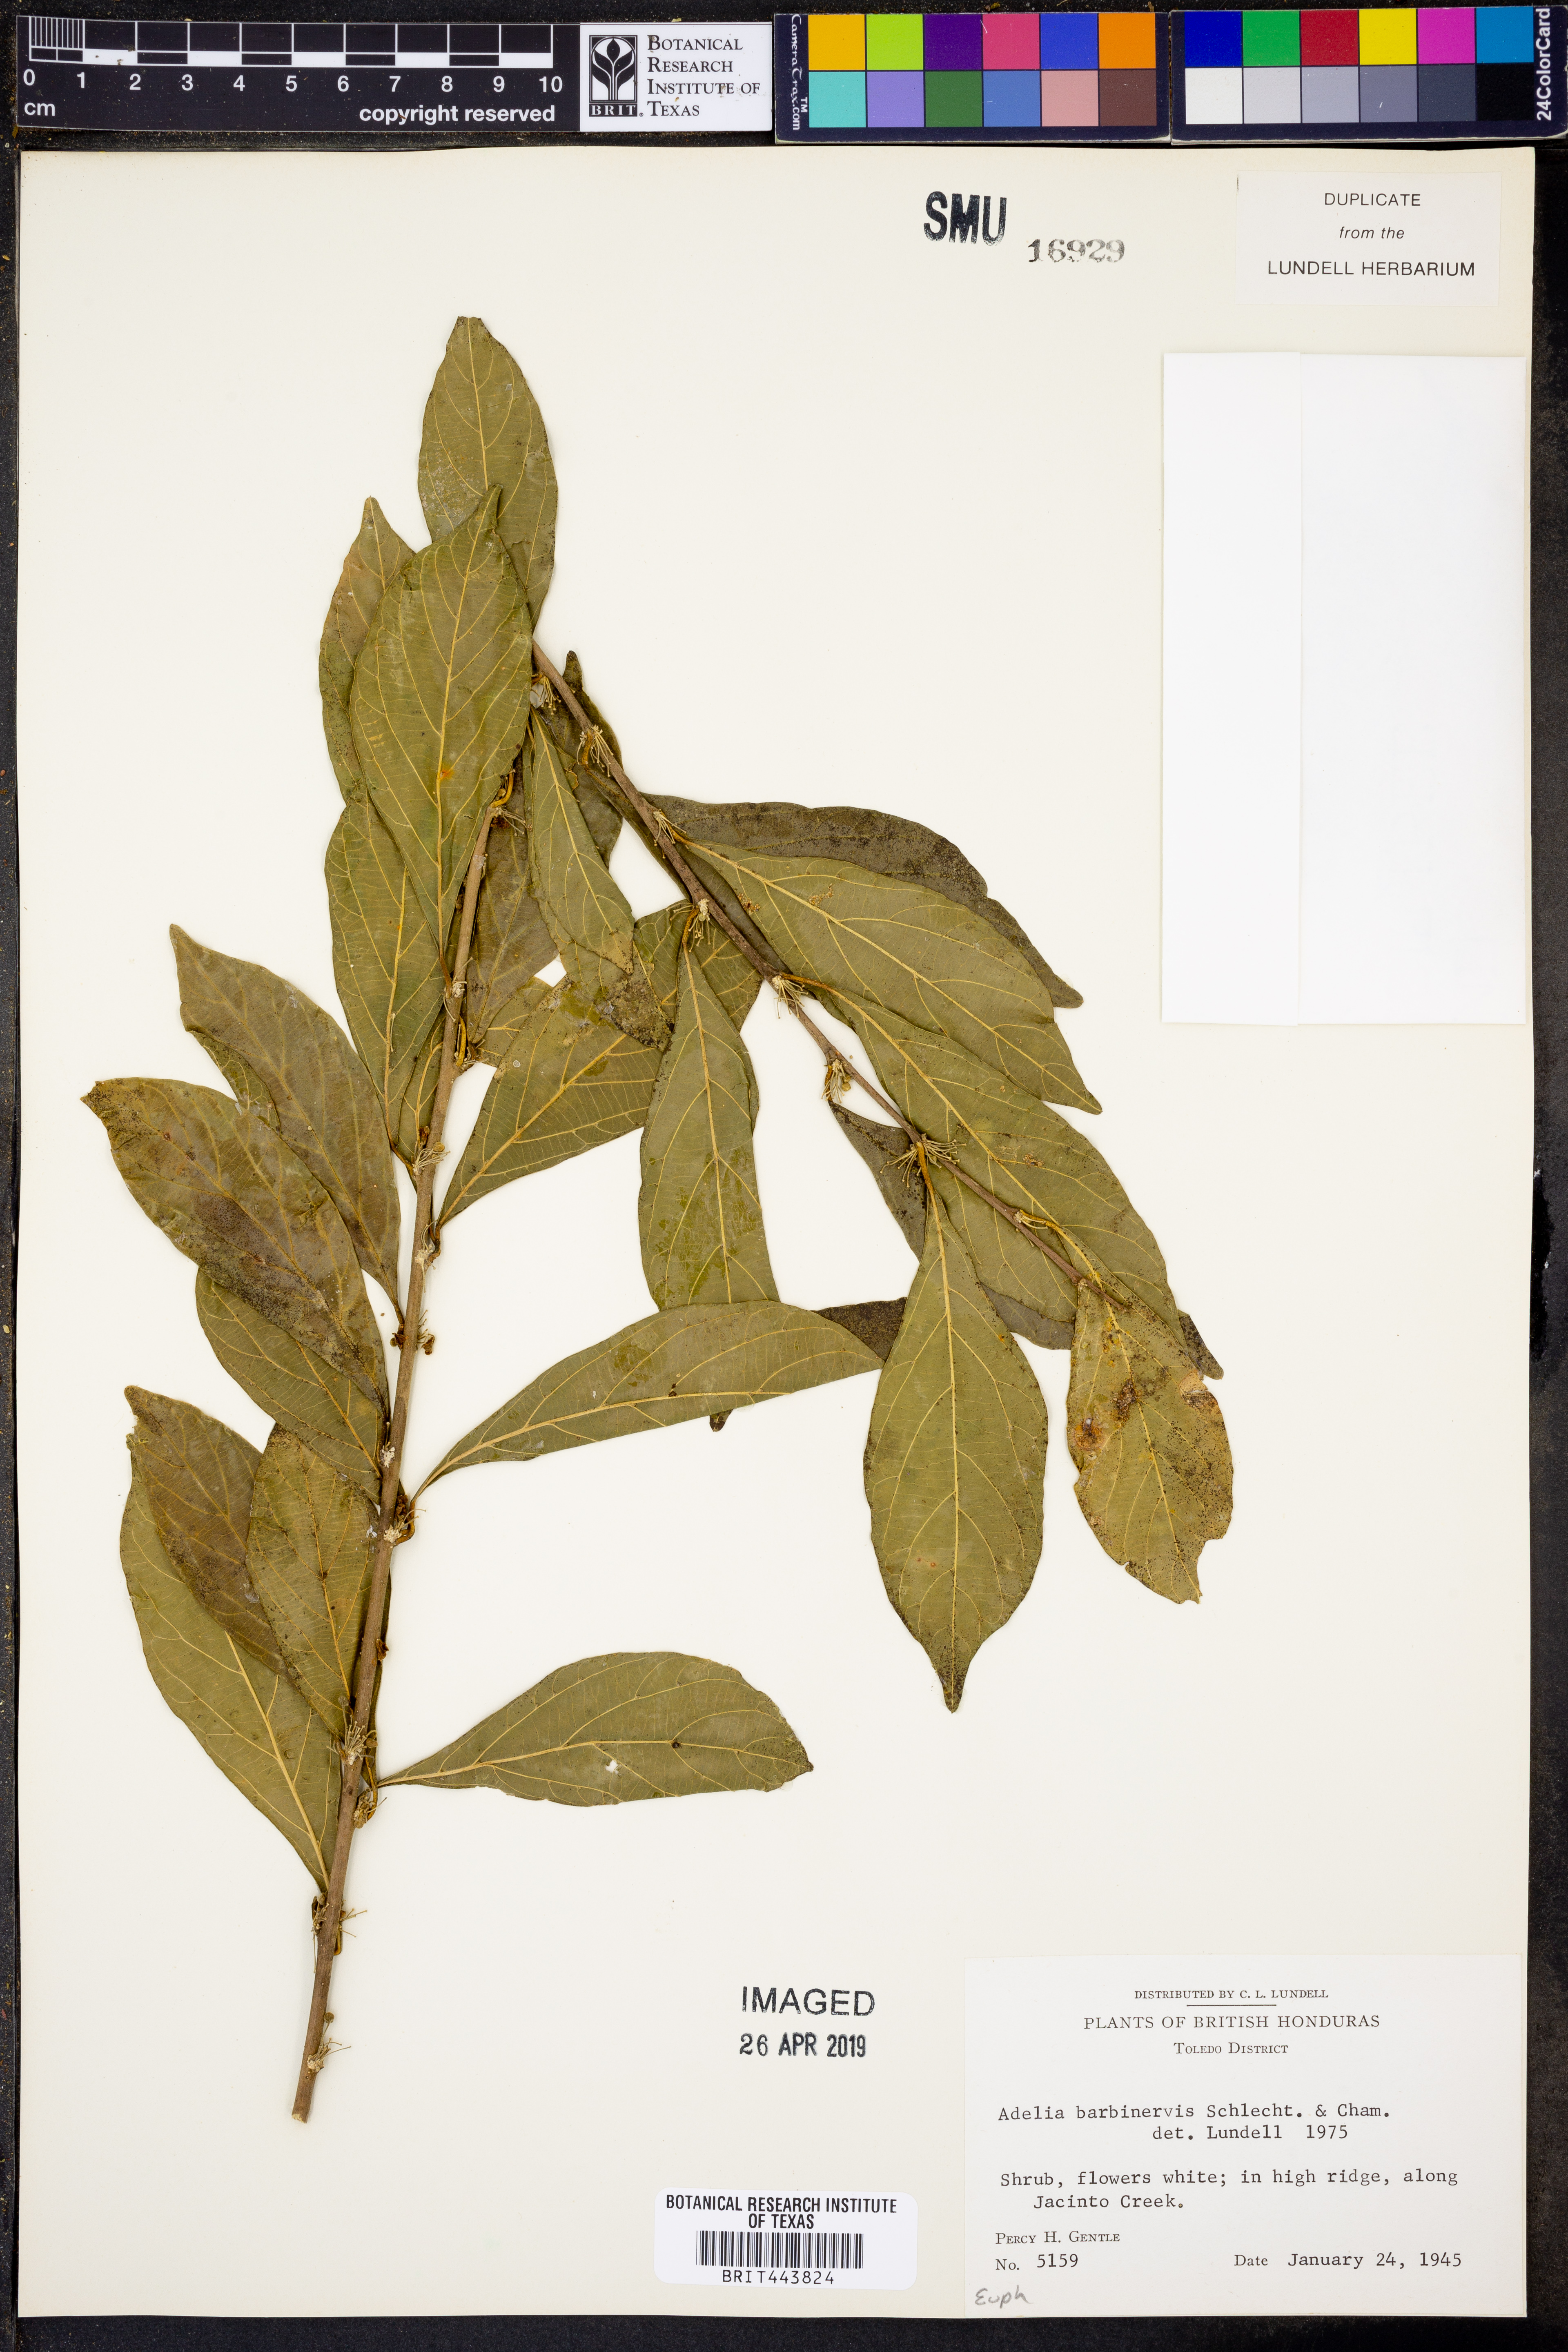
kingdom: Plantae
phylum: Tracheophyta
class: Magnoliopsida
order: Malpighiales
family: Euphorbiaceae
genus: Adelia
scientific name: Adelia barbinervis
